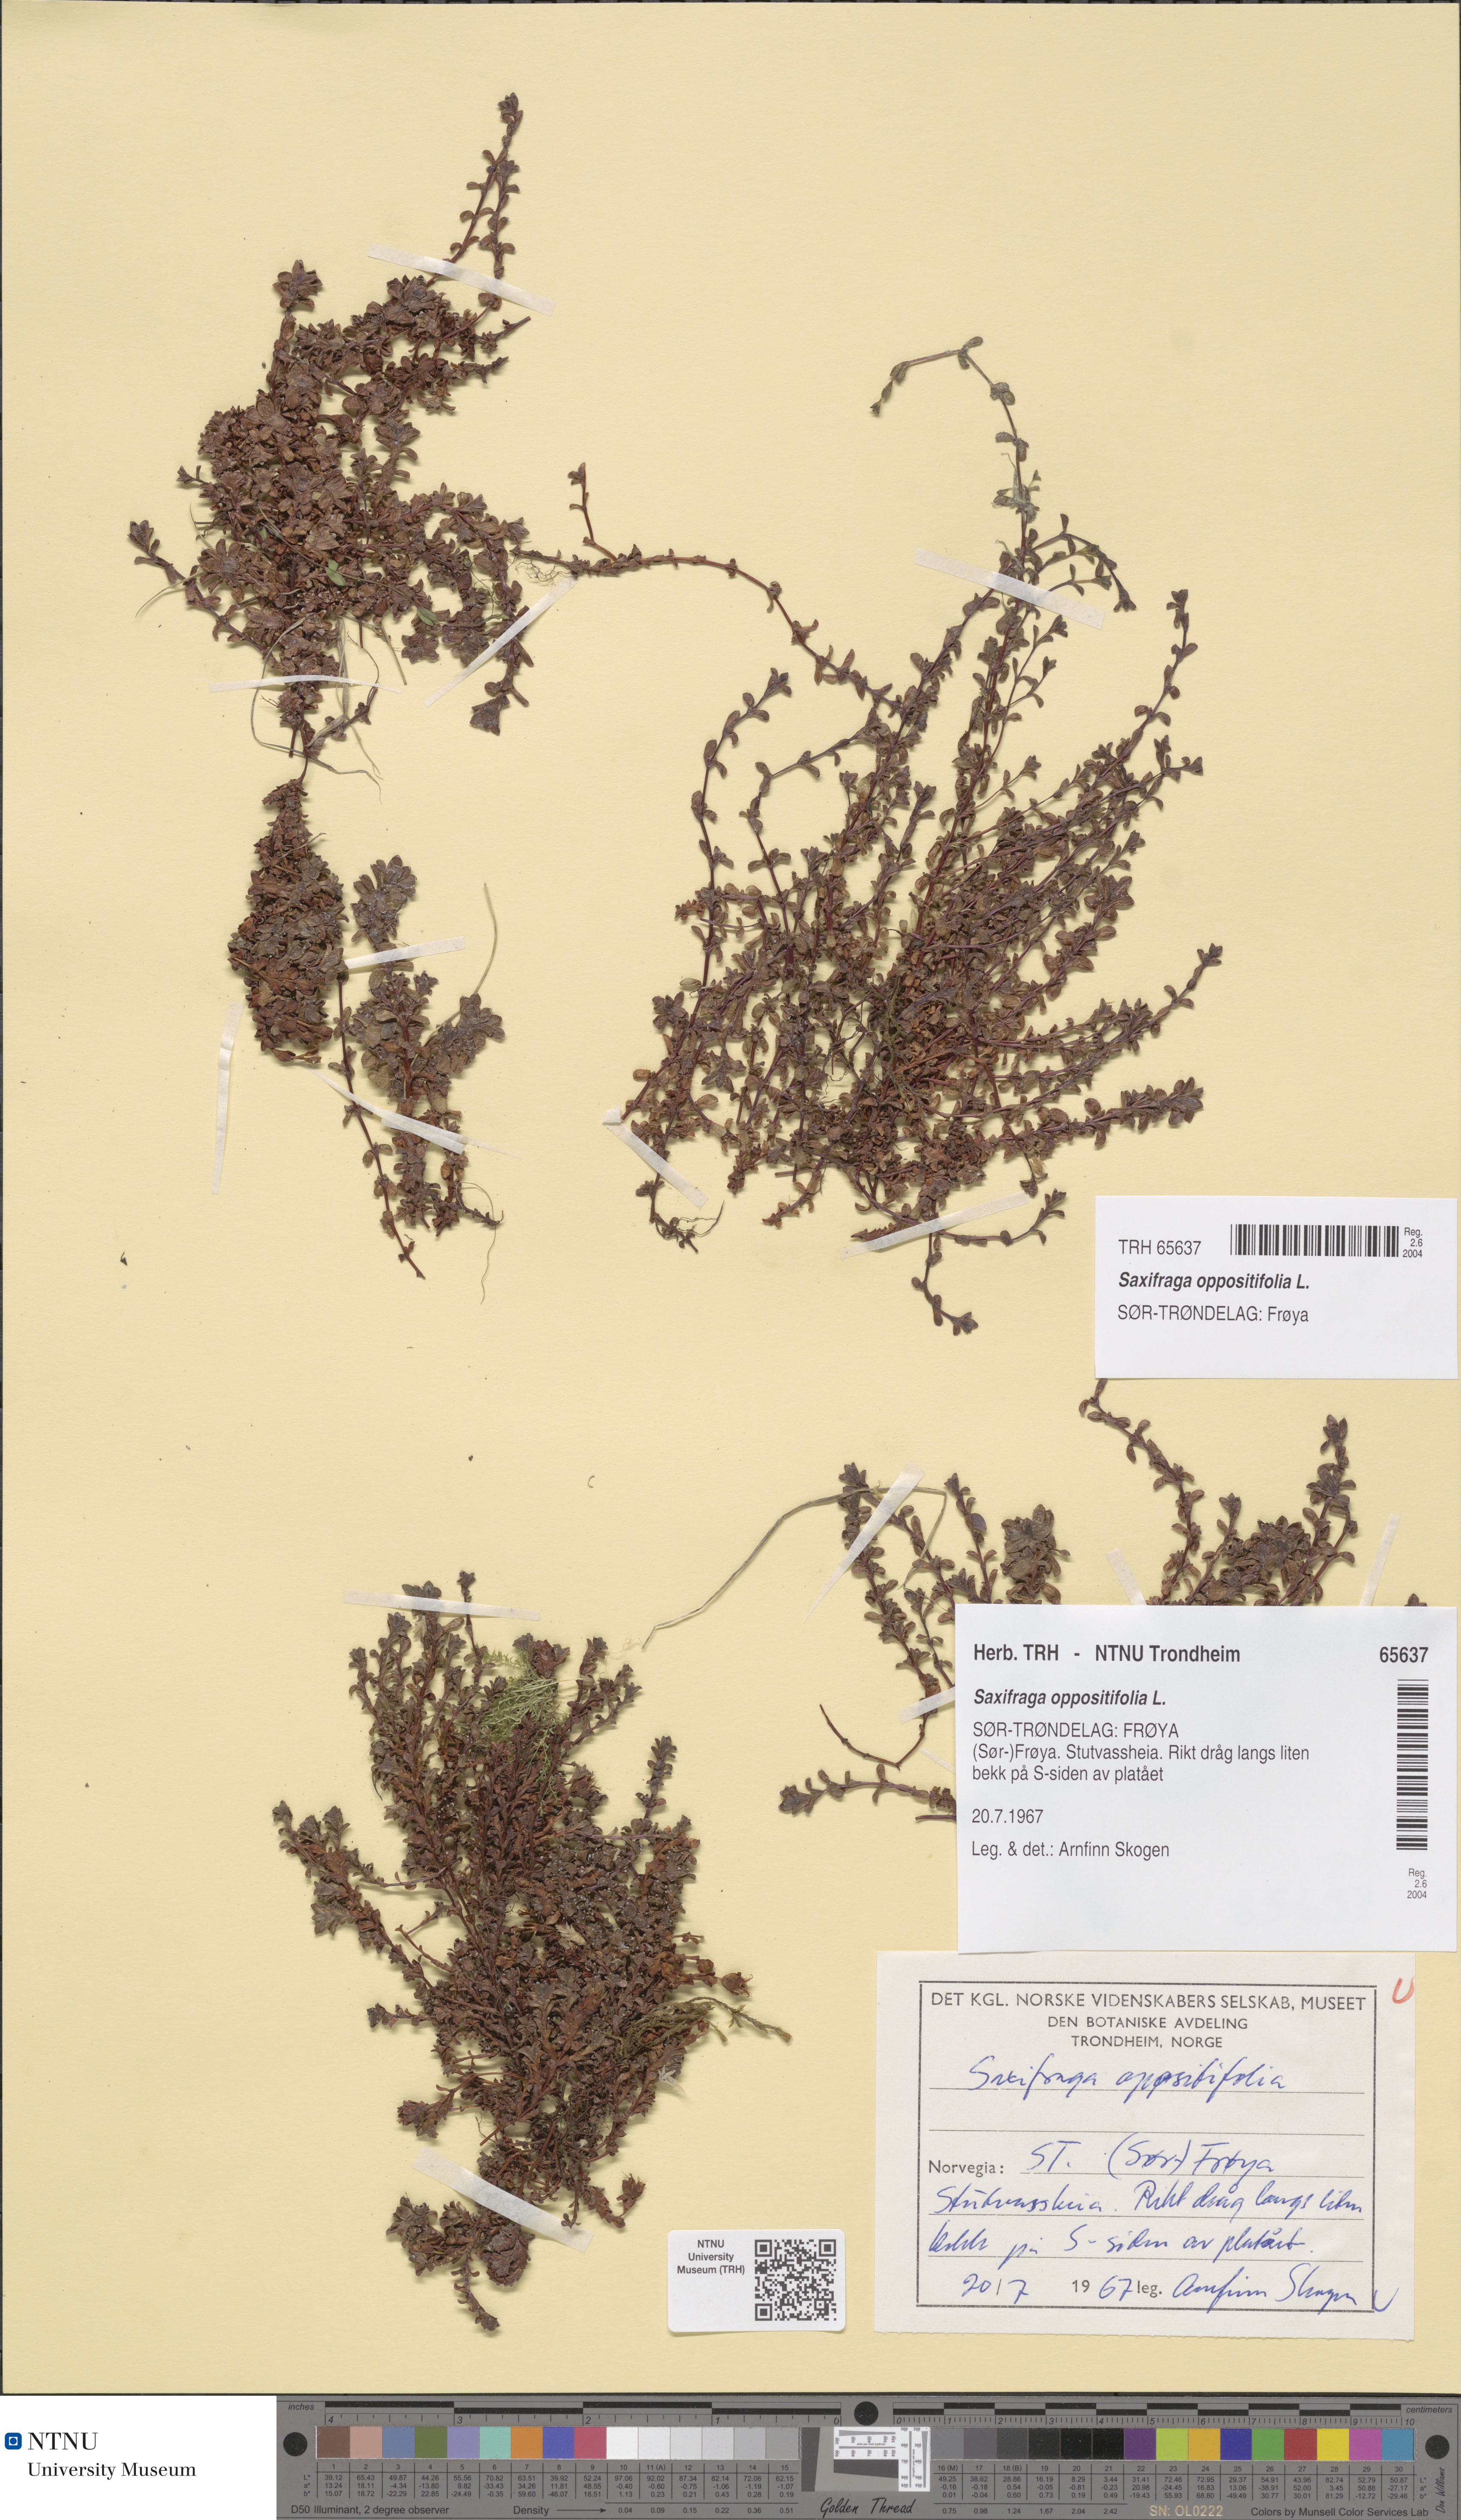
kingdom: Plantae
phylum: Tracheophyta
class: Magnoliopsida
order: Saxifragales
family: Saxifragaceae
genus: Saxifraga
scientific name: Saxifraga oppositifolia
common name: Purple saxifrage
